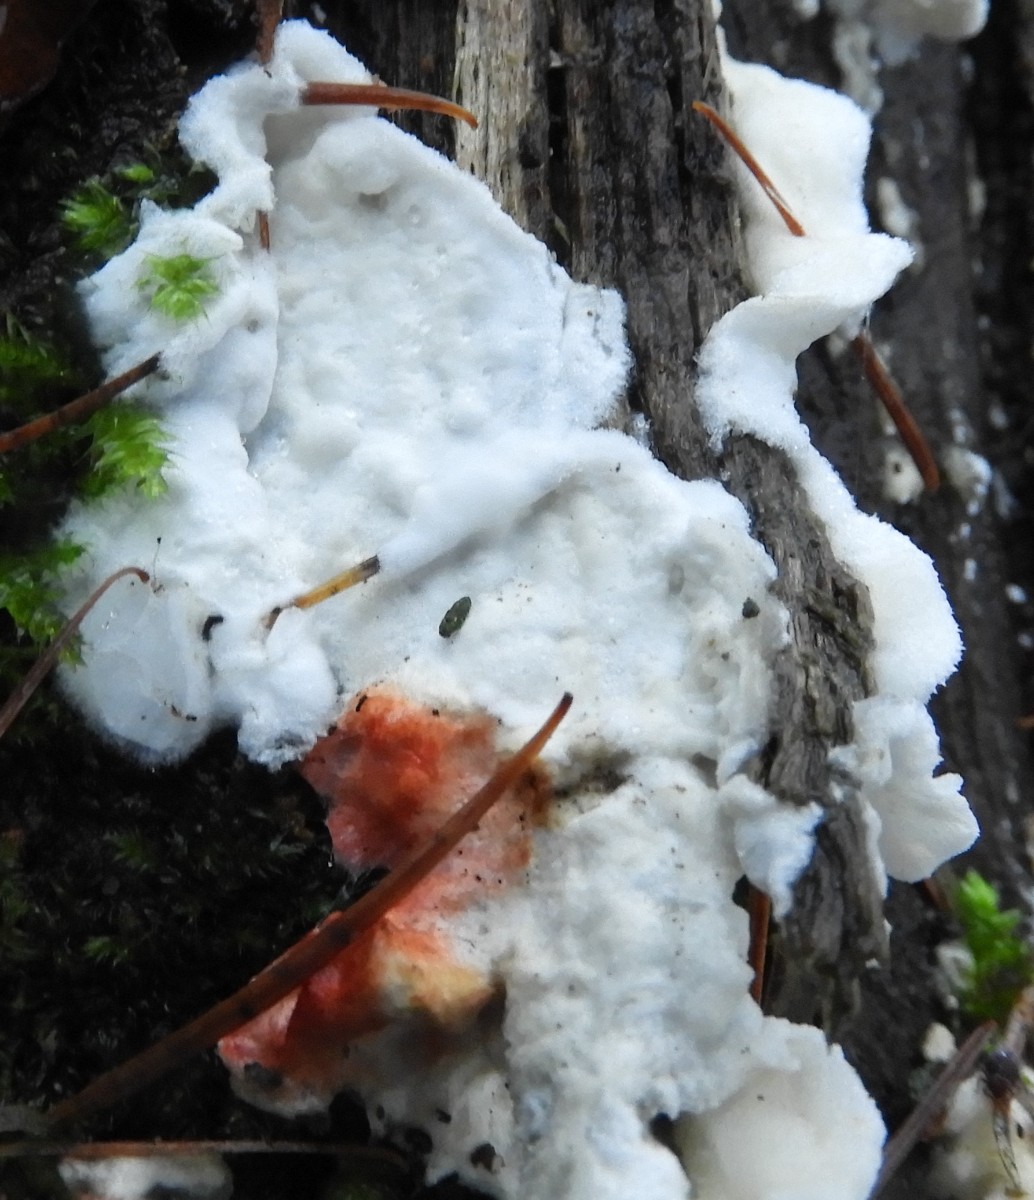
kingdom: Fungi
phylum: Basidiomycota
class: Agaricomycetes
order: Polyporales
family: Irpicaceae
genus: Byssomerulius
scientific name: Byssomerulius corium
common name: læder-åresvamp
